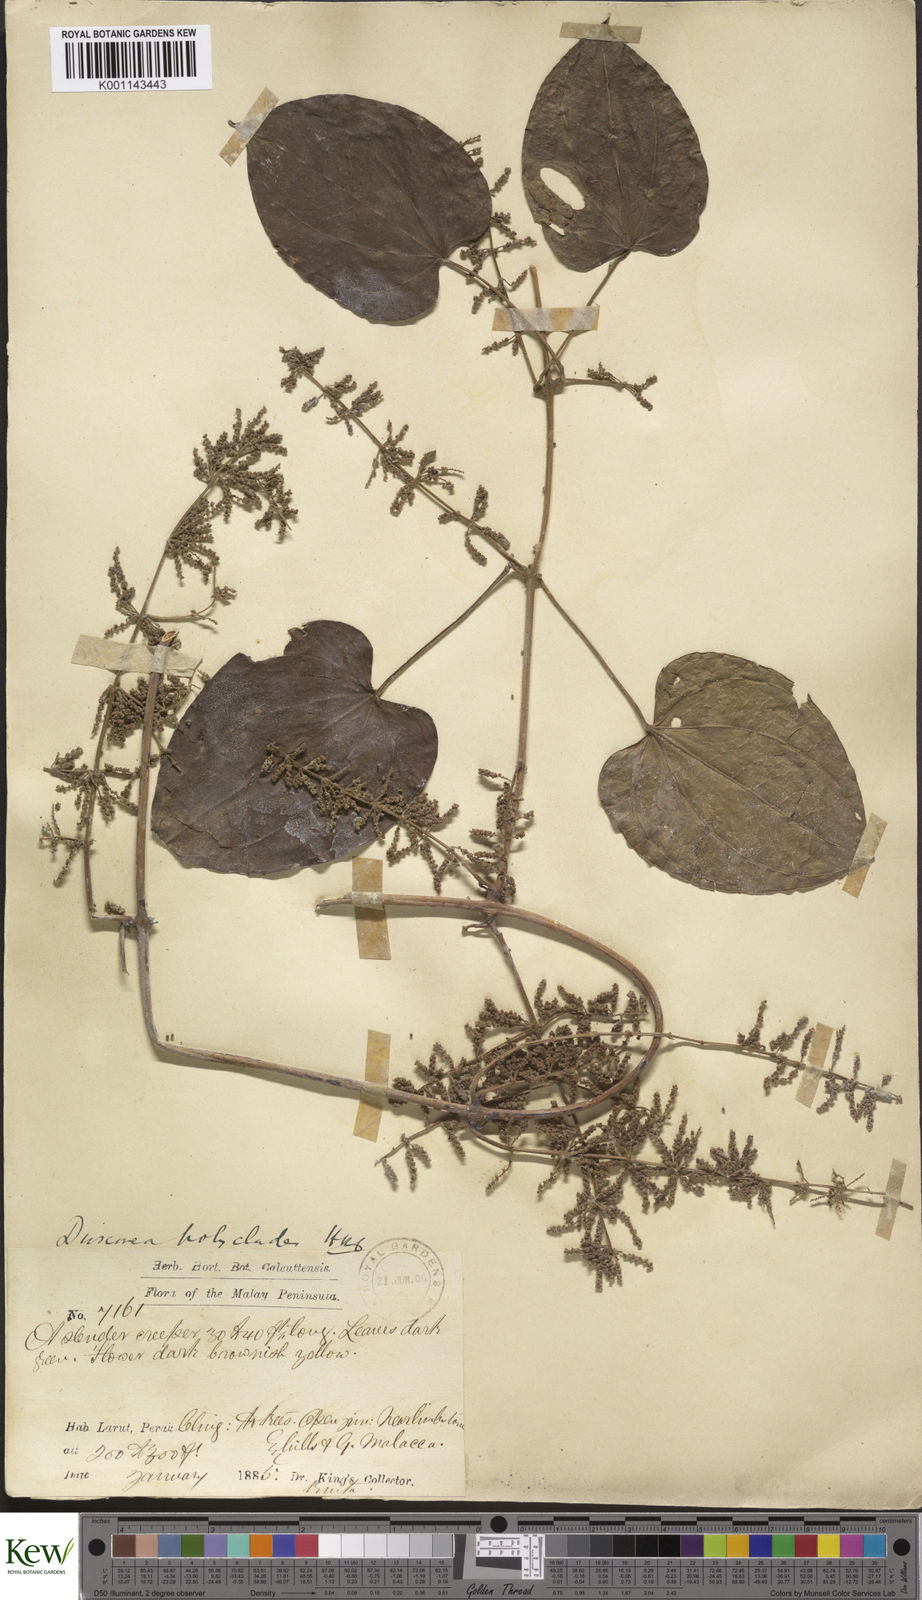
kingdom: Plantae
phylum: Tracheophyta
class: Liliopsida
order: Dioscoreales
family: Dioscoreaceae
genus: Dioscorea
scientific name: Dioscorea polyclados
